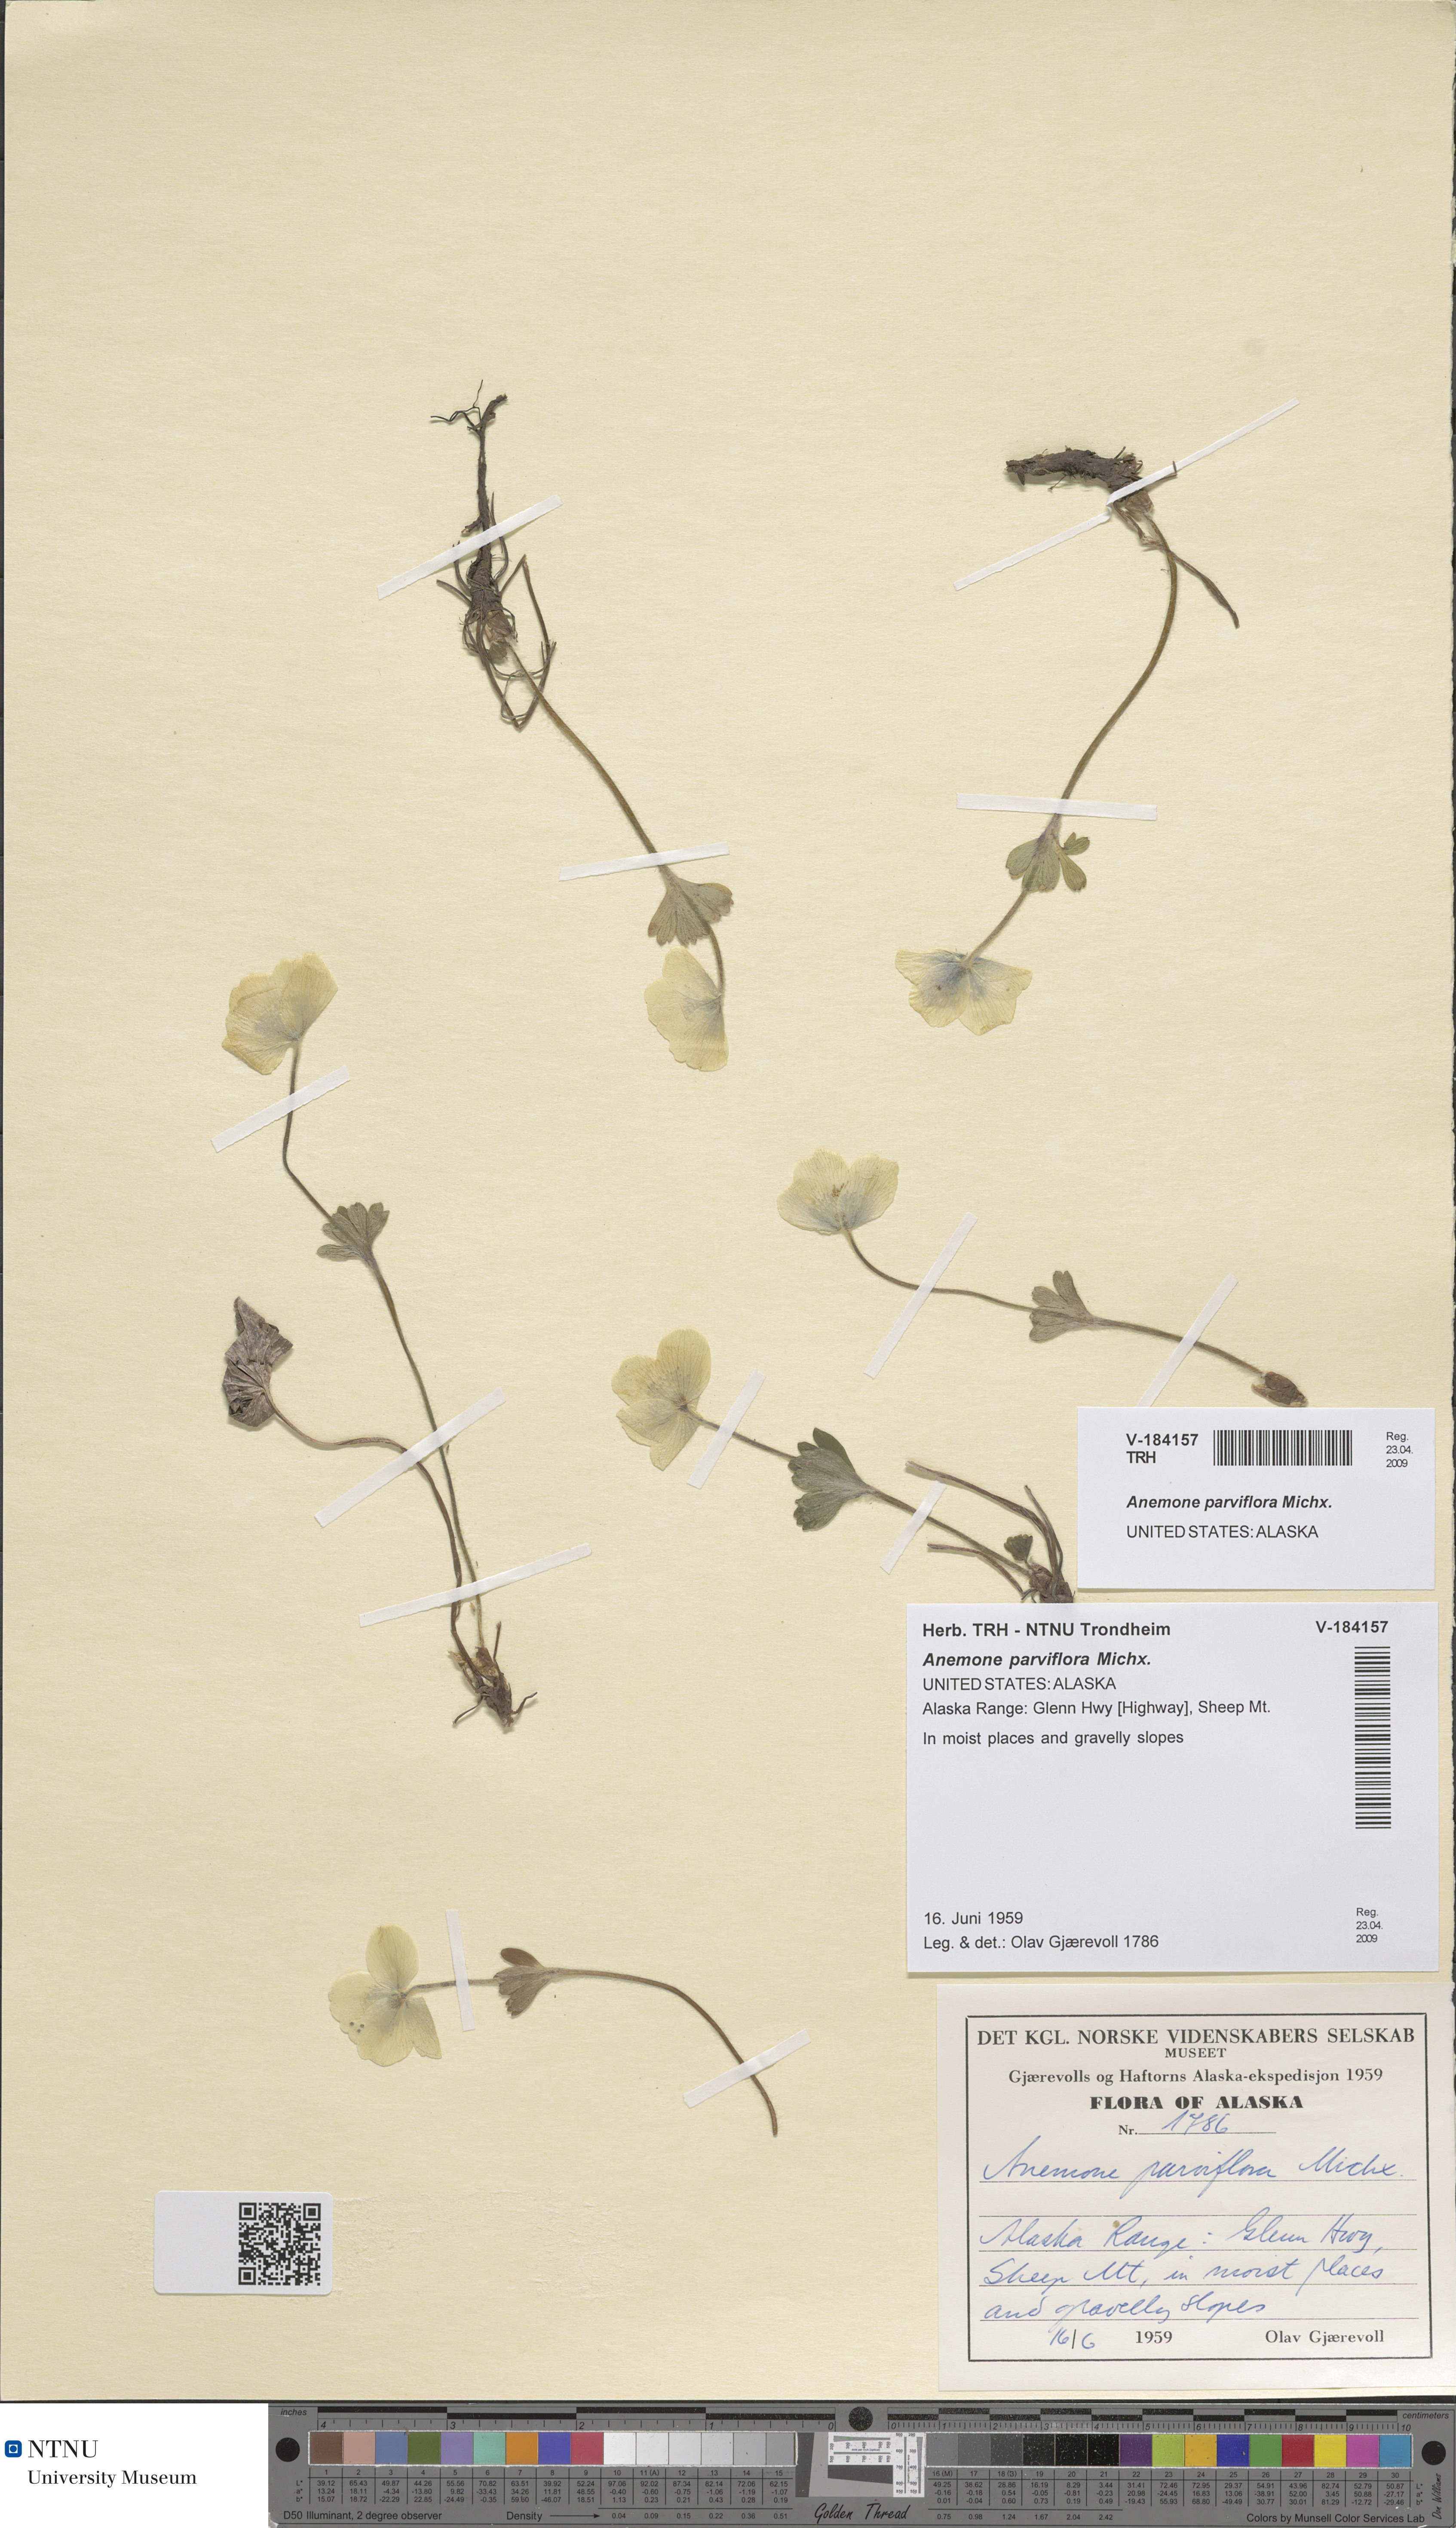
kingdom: Plantae
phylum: Tracheophyta
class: Magnoliopsida
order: Ranunculales
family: Ranunculaceae
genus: Anemone
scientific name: Anemone parviflora
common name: Northern anemone
